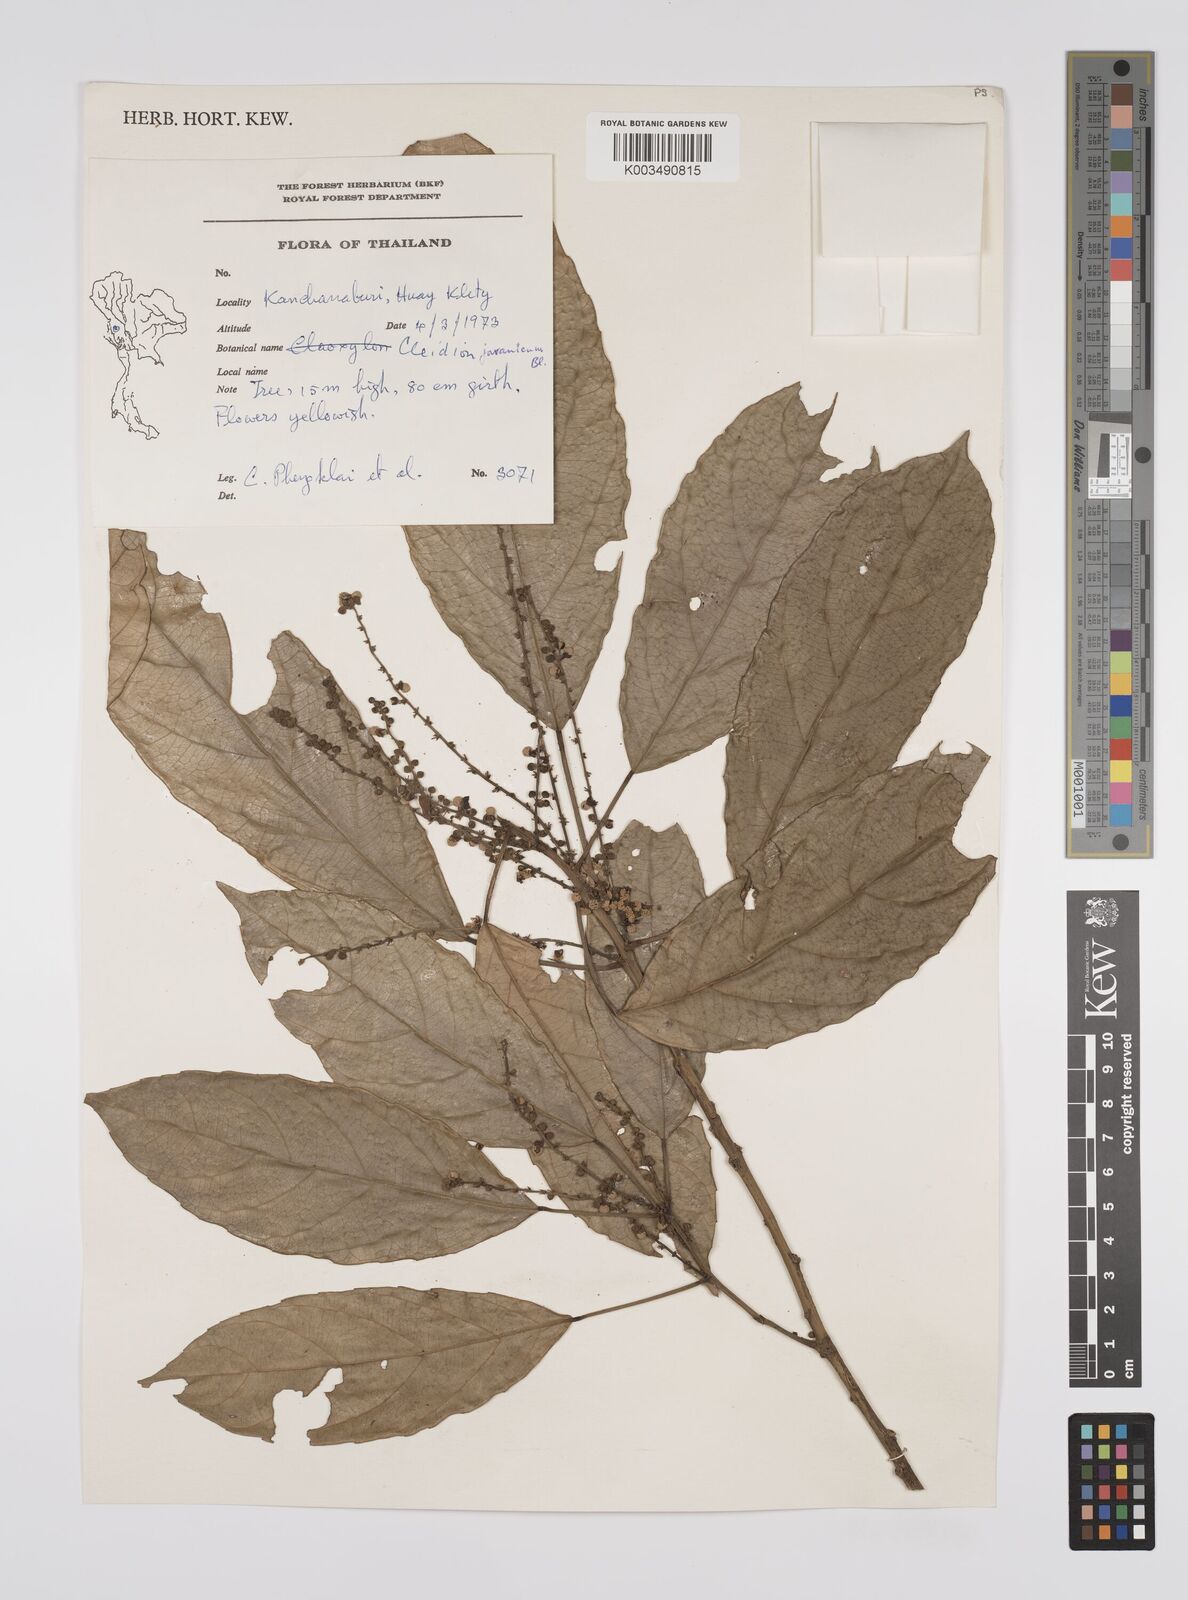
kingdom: Plantae
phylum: Tracheophyta
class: Magnoliopsida
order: Malpighiales
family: Euphorbiaceae
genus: Acalypha
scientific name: Acalypha spiciflora
